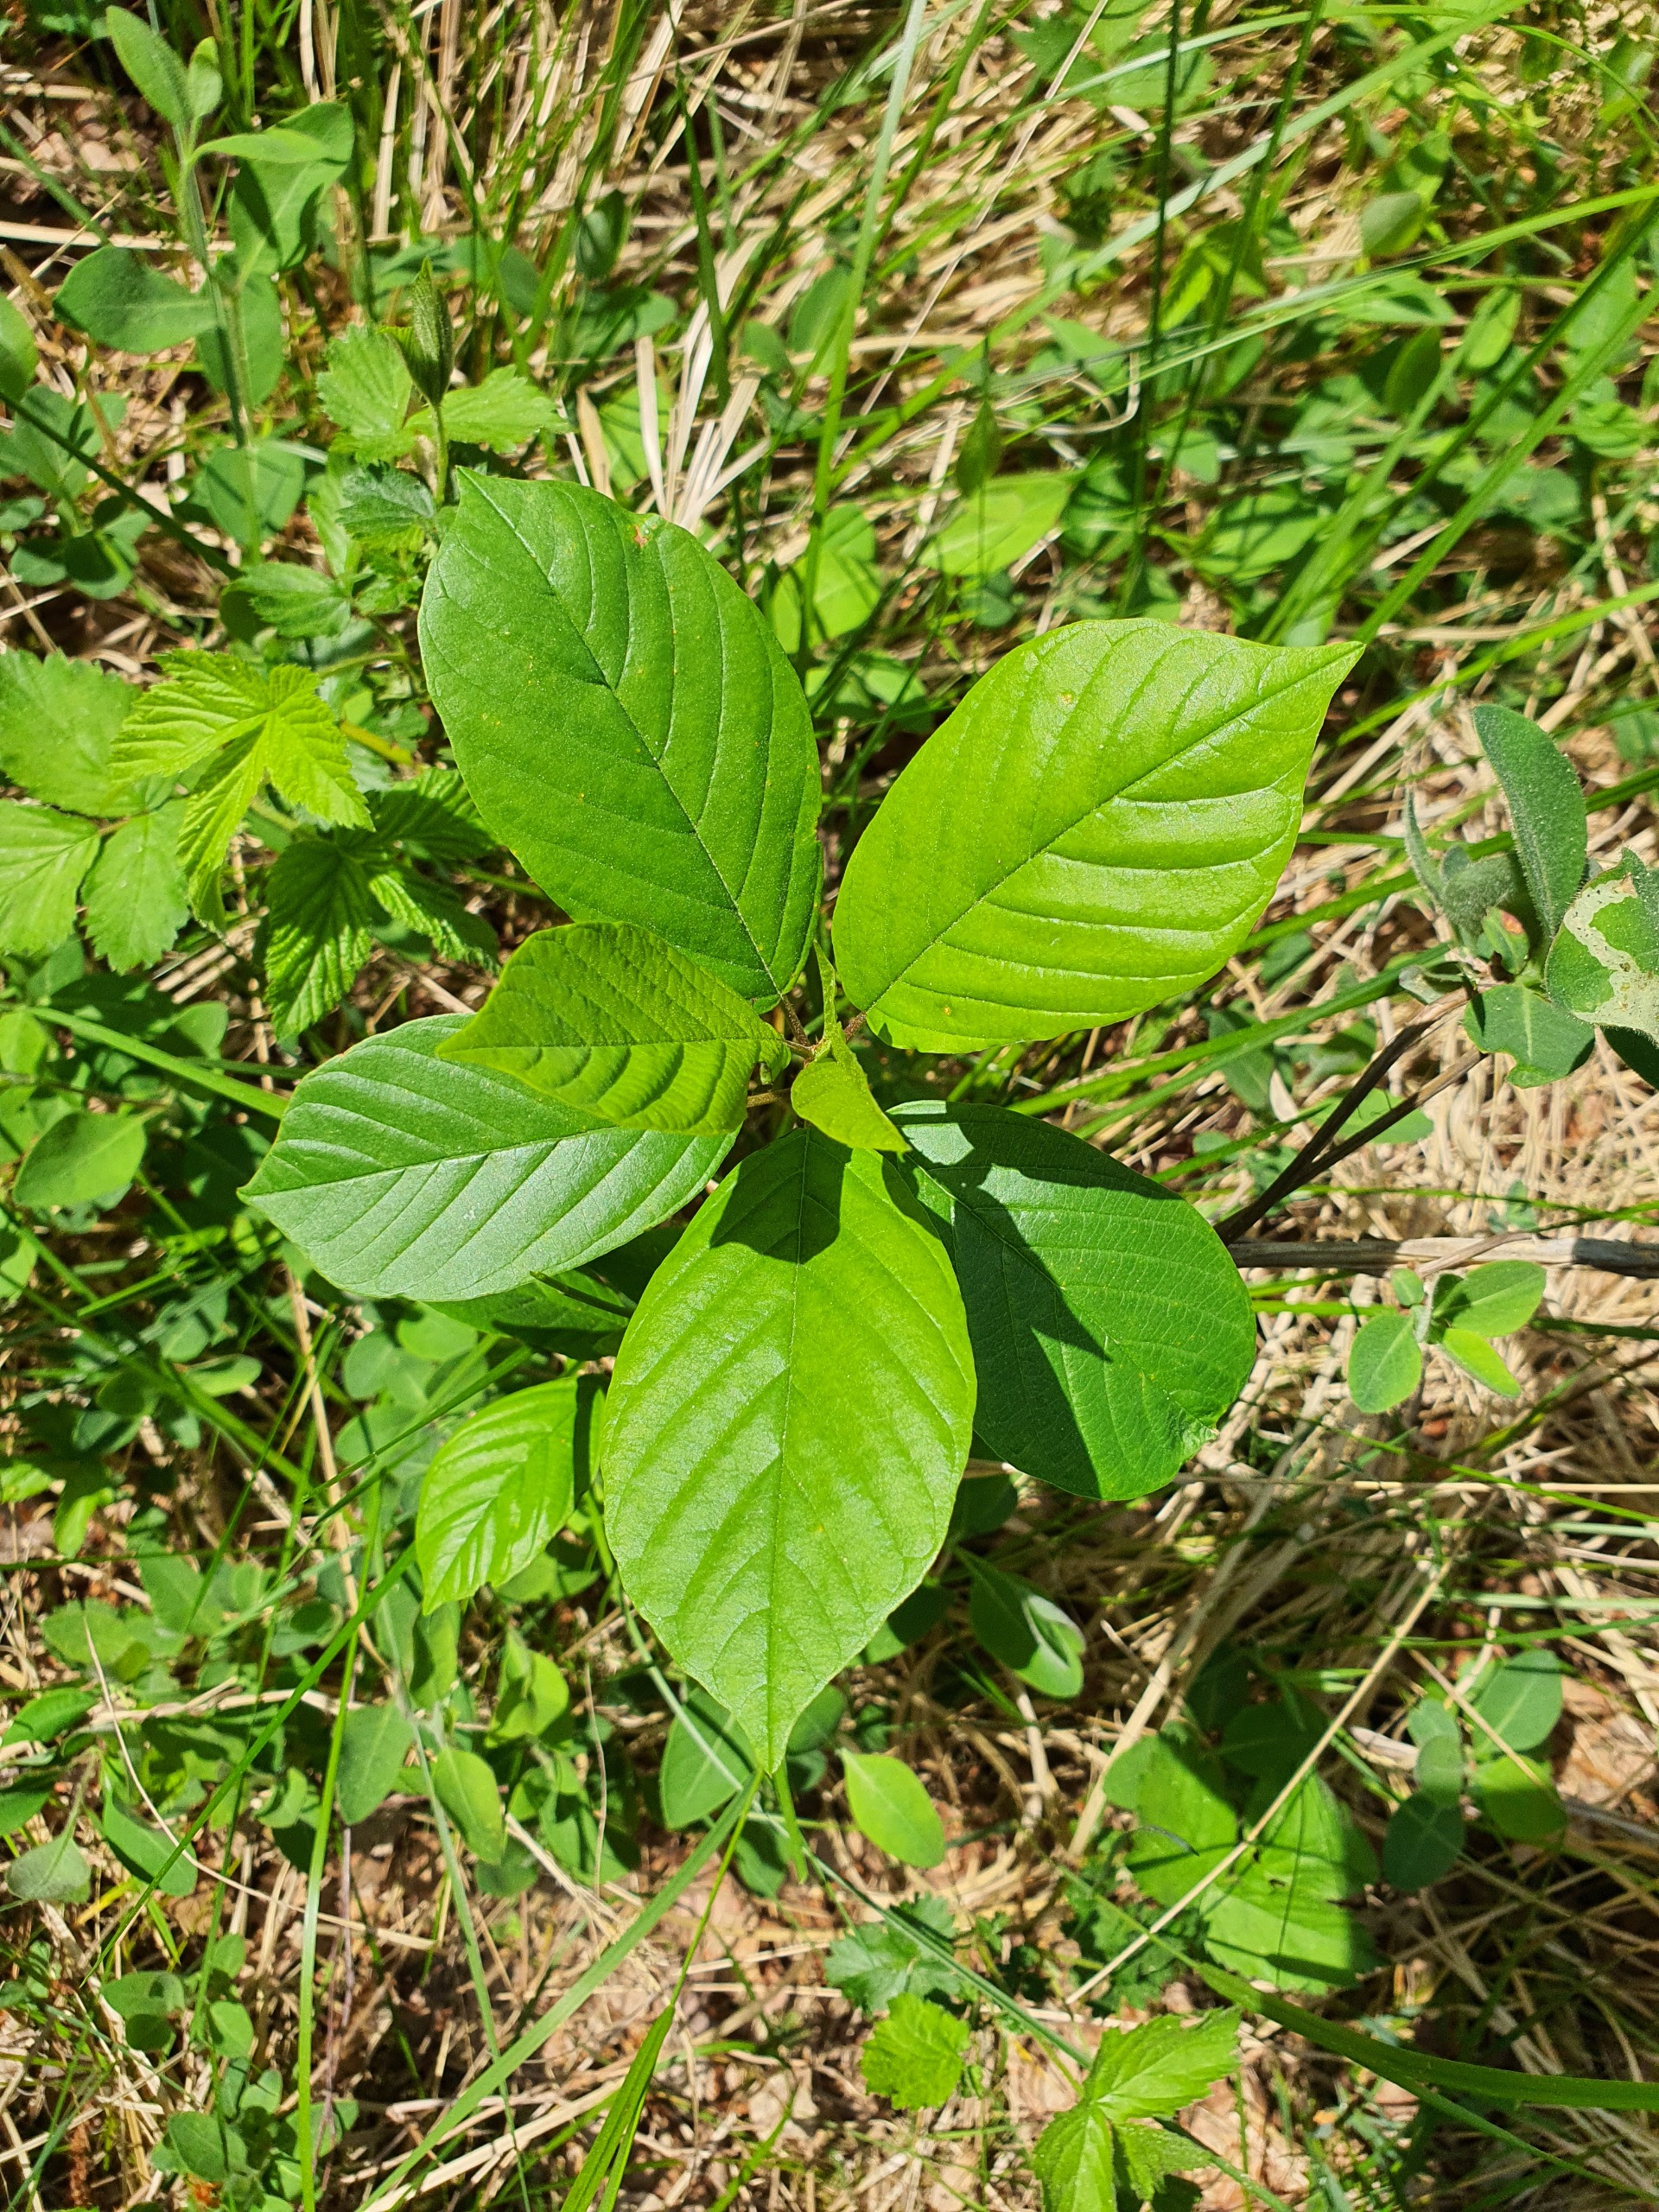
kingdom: Plantae
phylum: Tracheophyta
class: Magnoliopsida
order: Rosales
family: Rhamnaceae
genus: Frangula
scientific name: Frangula alnus
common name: Tørst
